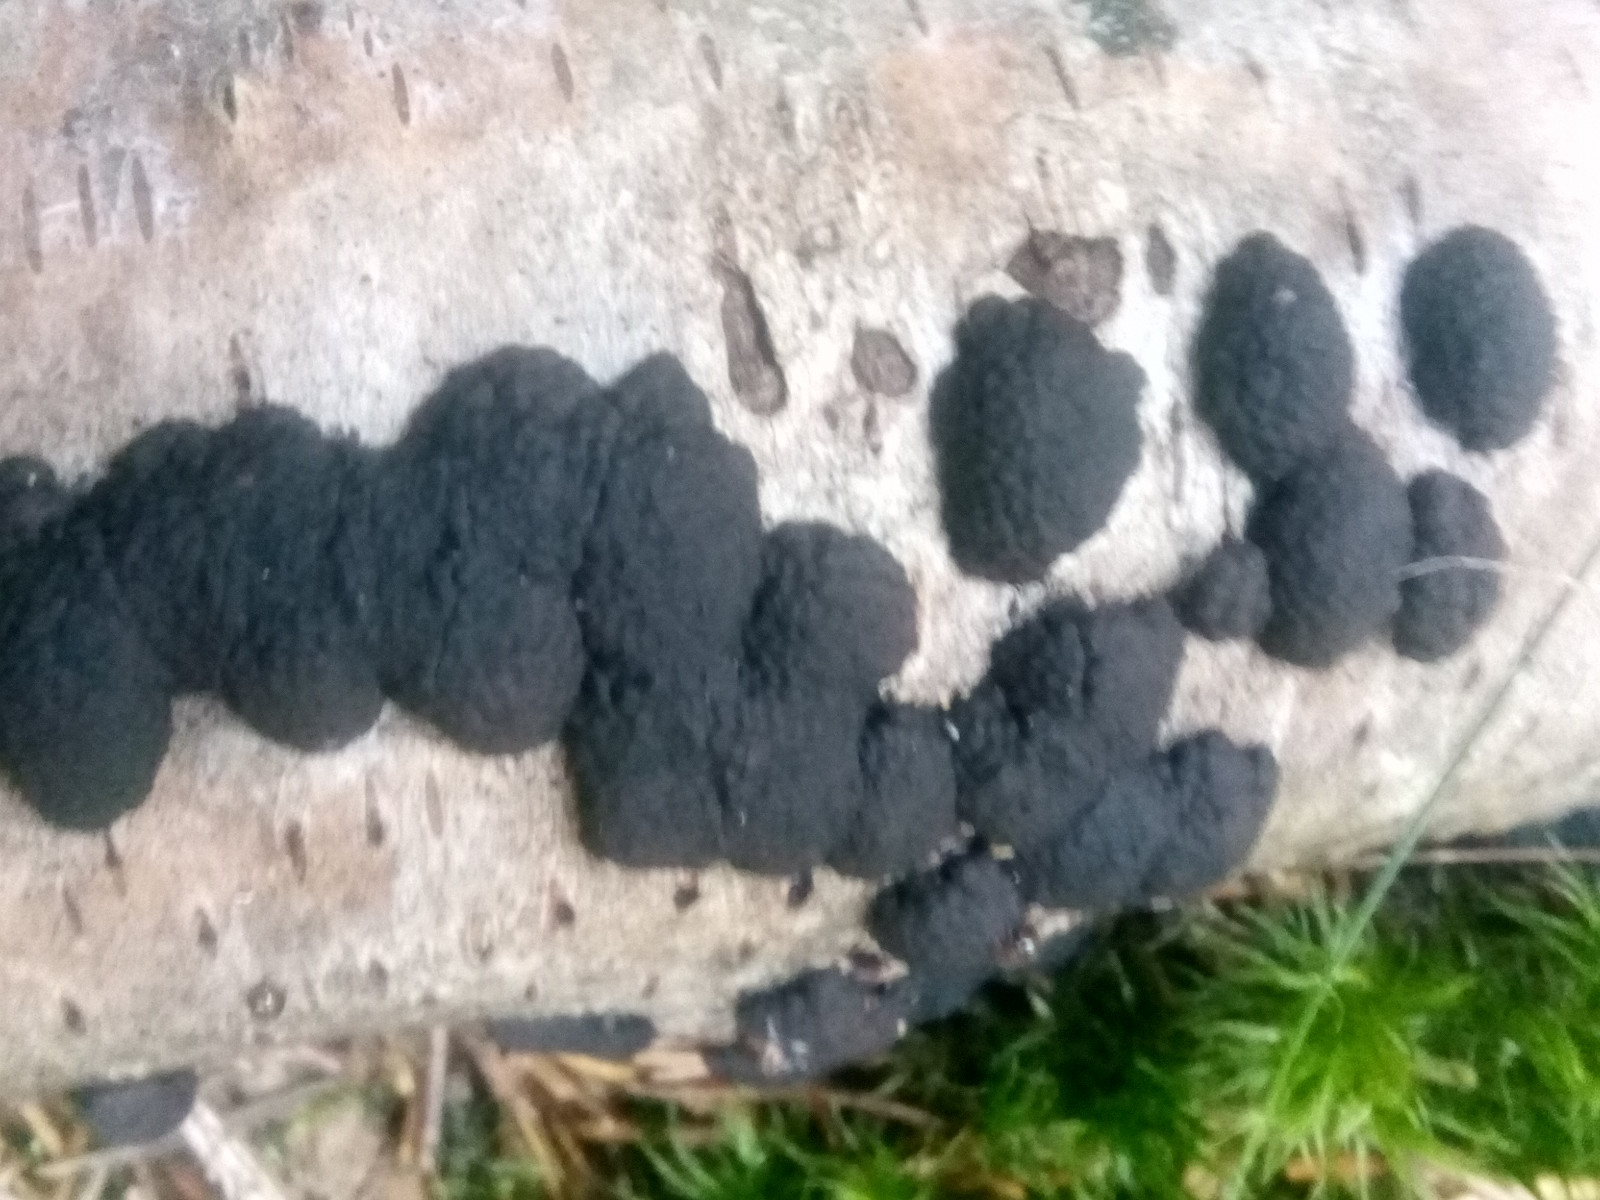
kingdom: Fungi
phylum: Ascomycota
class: Sordariomycetes
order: Xylariales
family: Hypoxylaceae
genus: Jackrogersella
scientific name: Jackrogersella multiformis
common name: foranderlig kulbær
